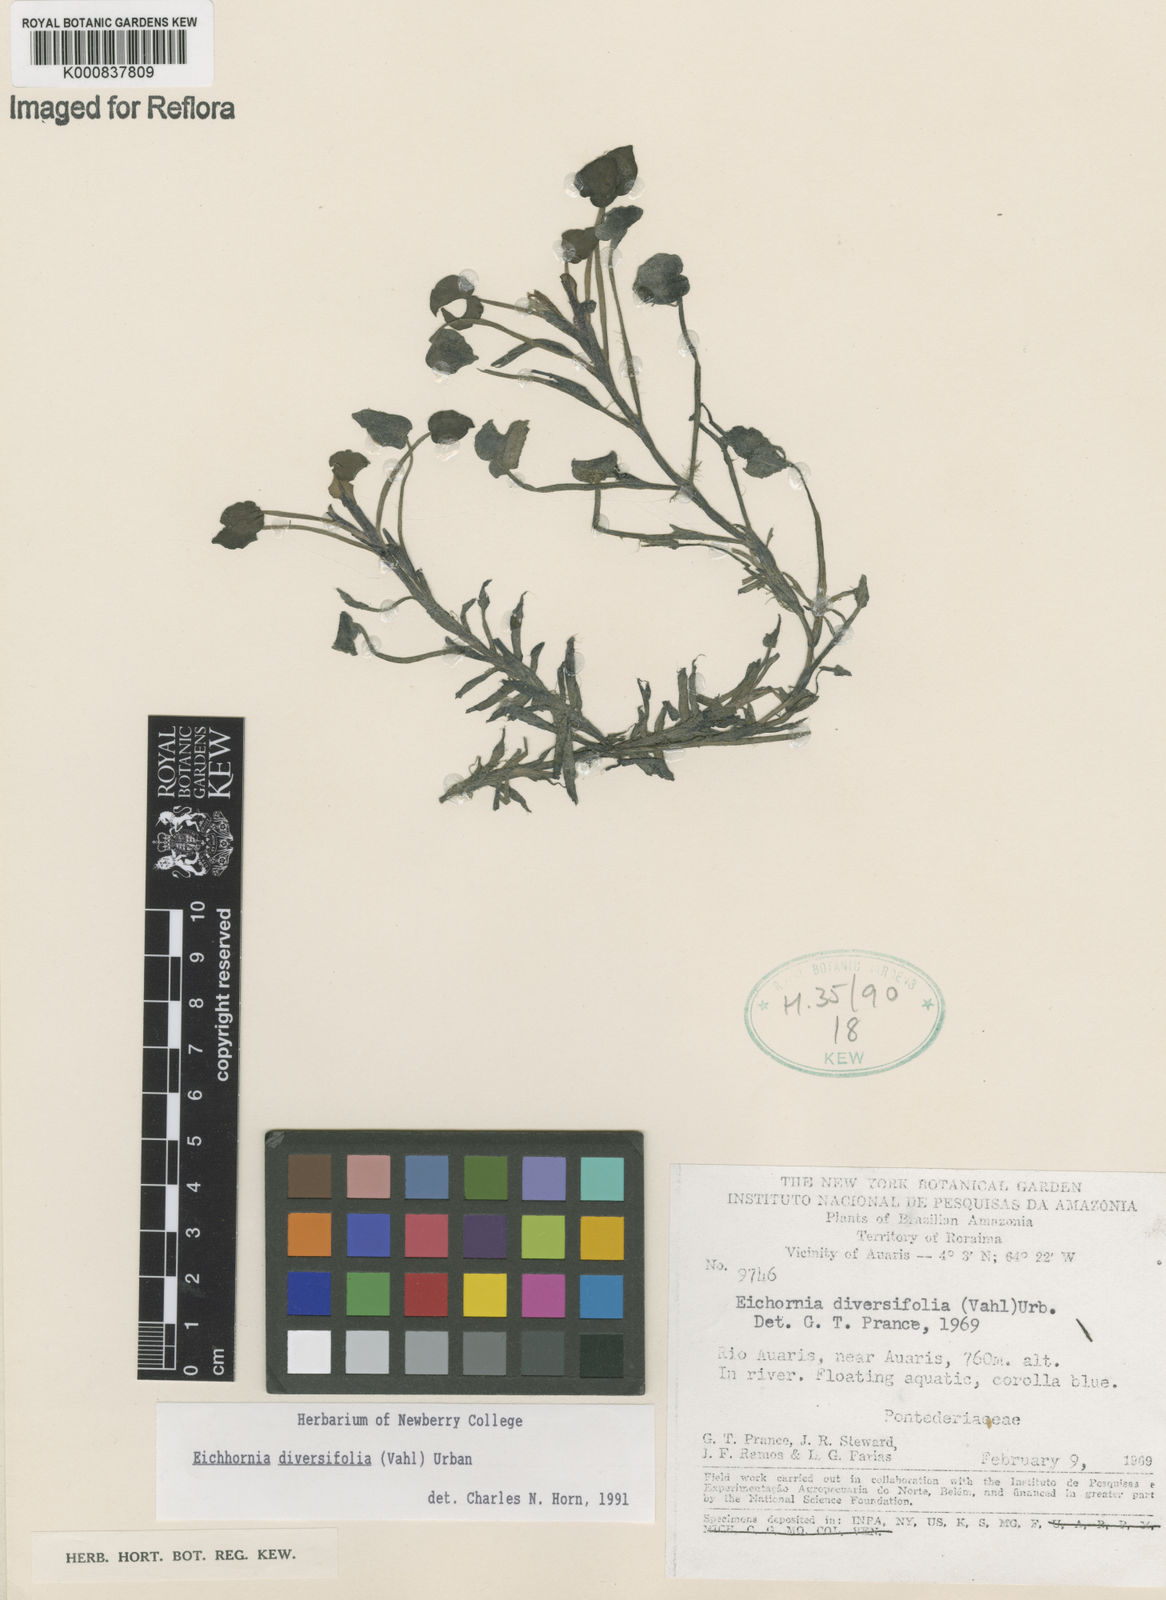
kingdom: Plantae
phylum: Tracheophyta
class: Liliopsida
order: Commelinales
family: Pontederiaceae
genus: Pontederia
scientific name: Pontederia diversifolia
